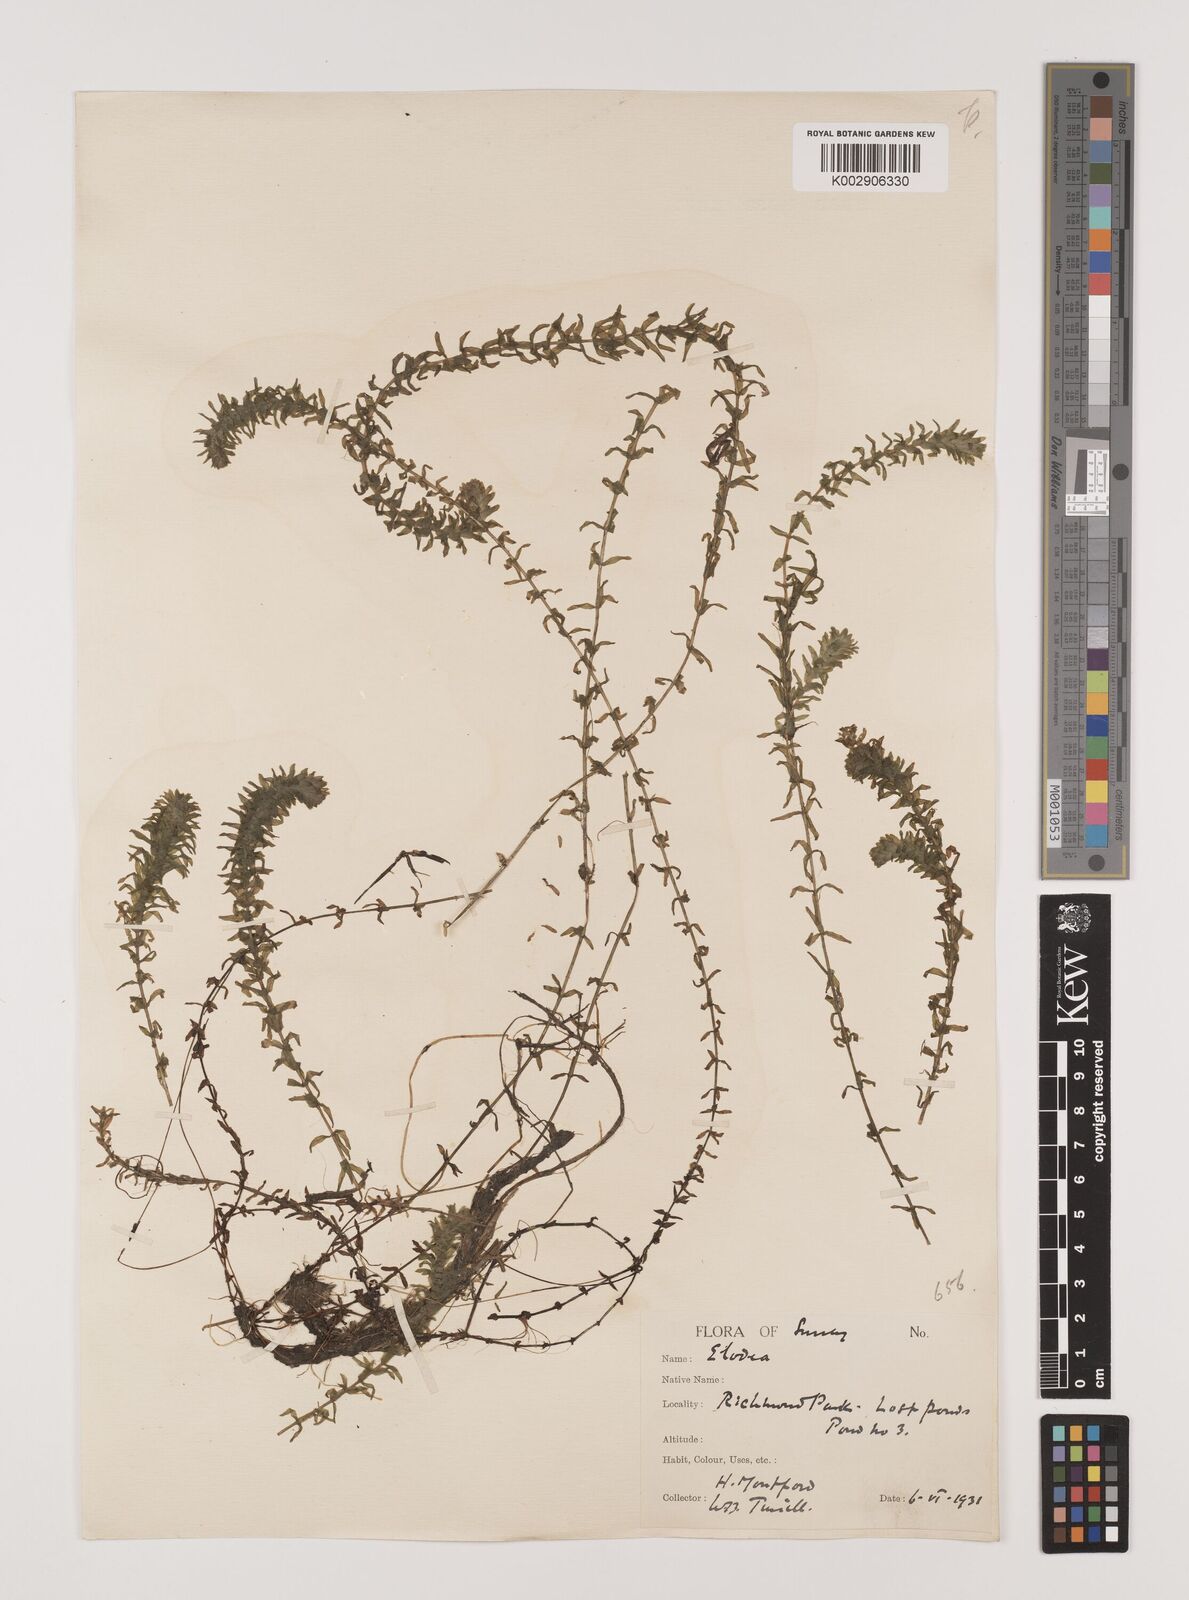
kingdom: Plantae
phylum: Tracheophyta
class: Liliopsida
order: Alismatales
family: Hydrocharitaceae
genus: Elodea
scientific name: Elodea canadensis
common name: Canadian waterweed
